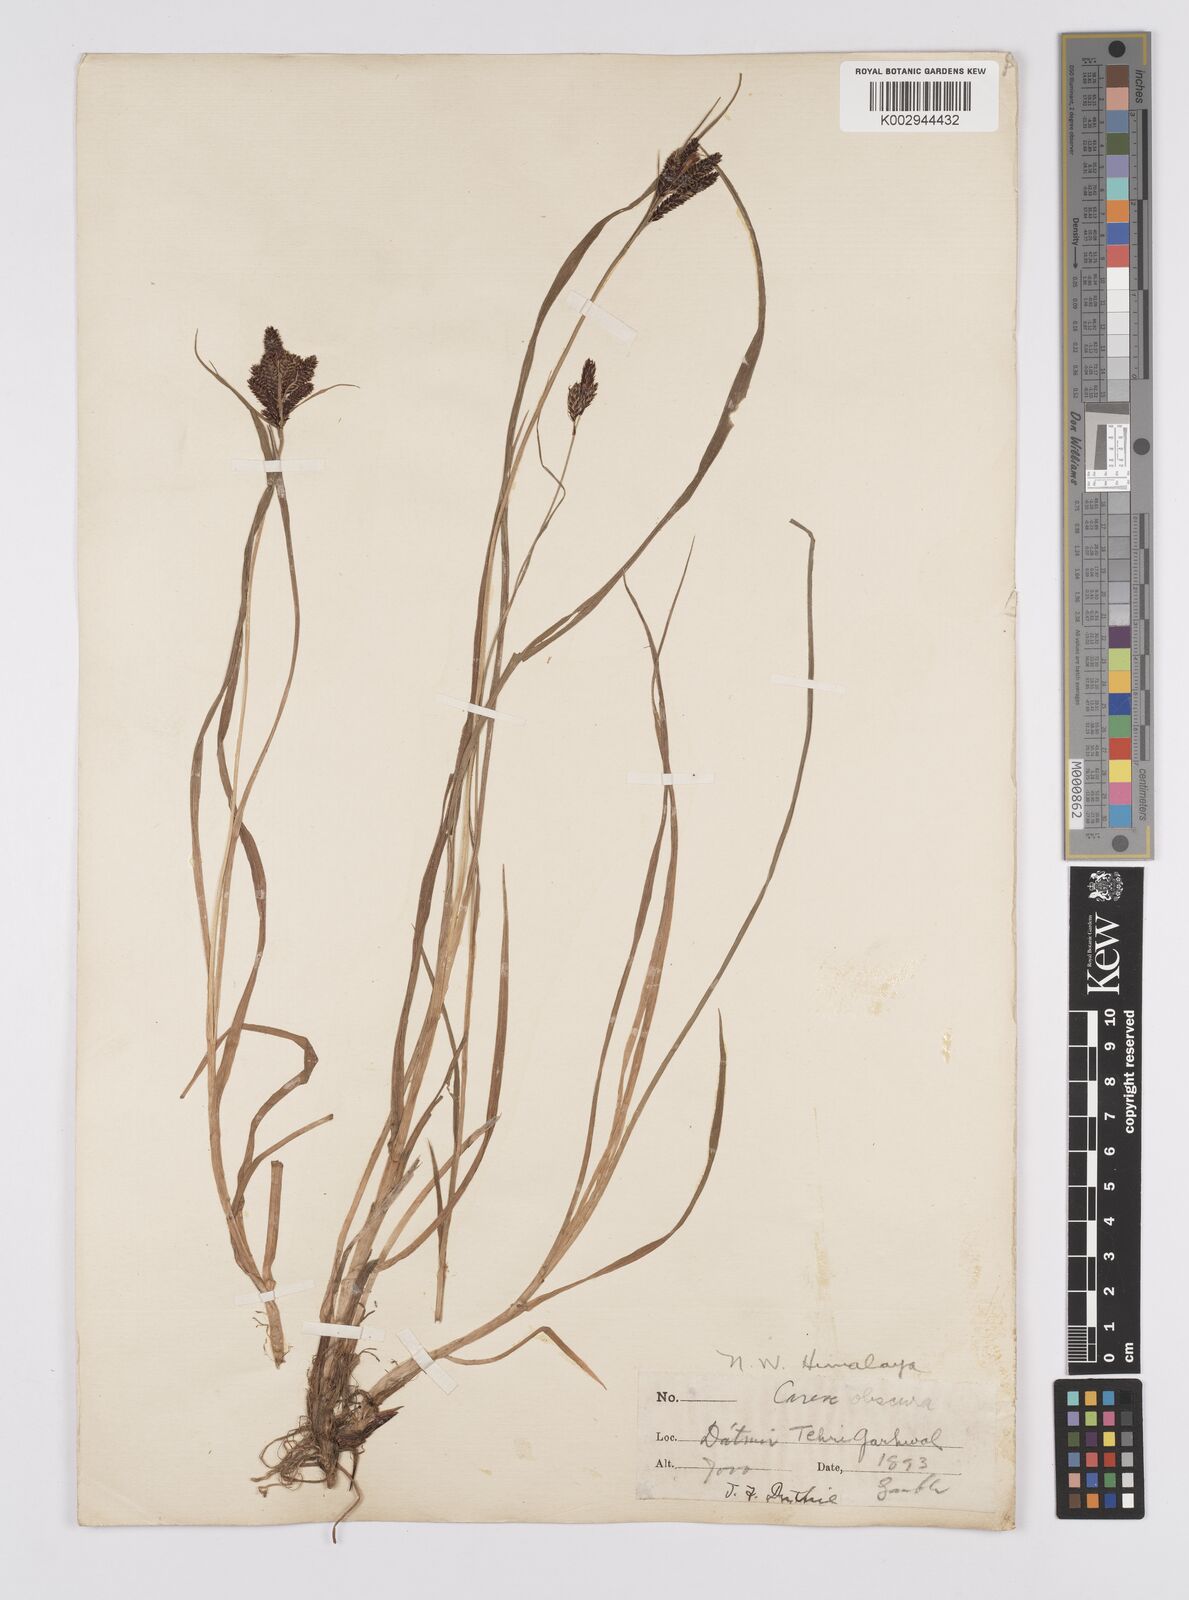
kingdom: Plantae
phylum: Tracheophyta
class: Liliopsida
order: Poales
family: Cyperaceae
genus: Carex
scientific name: Carex obscura
